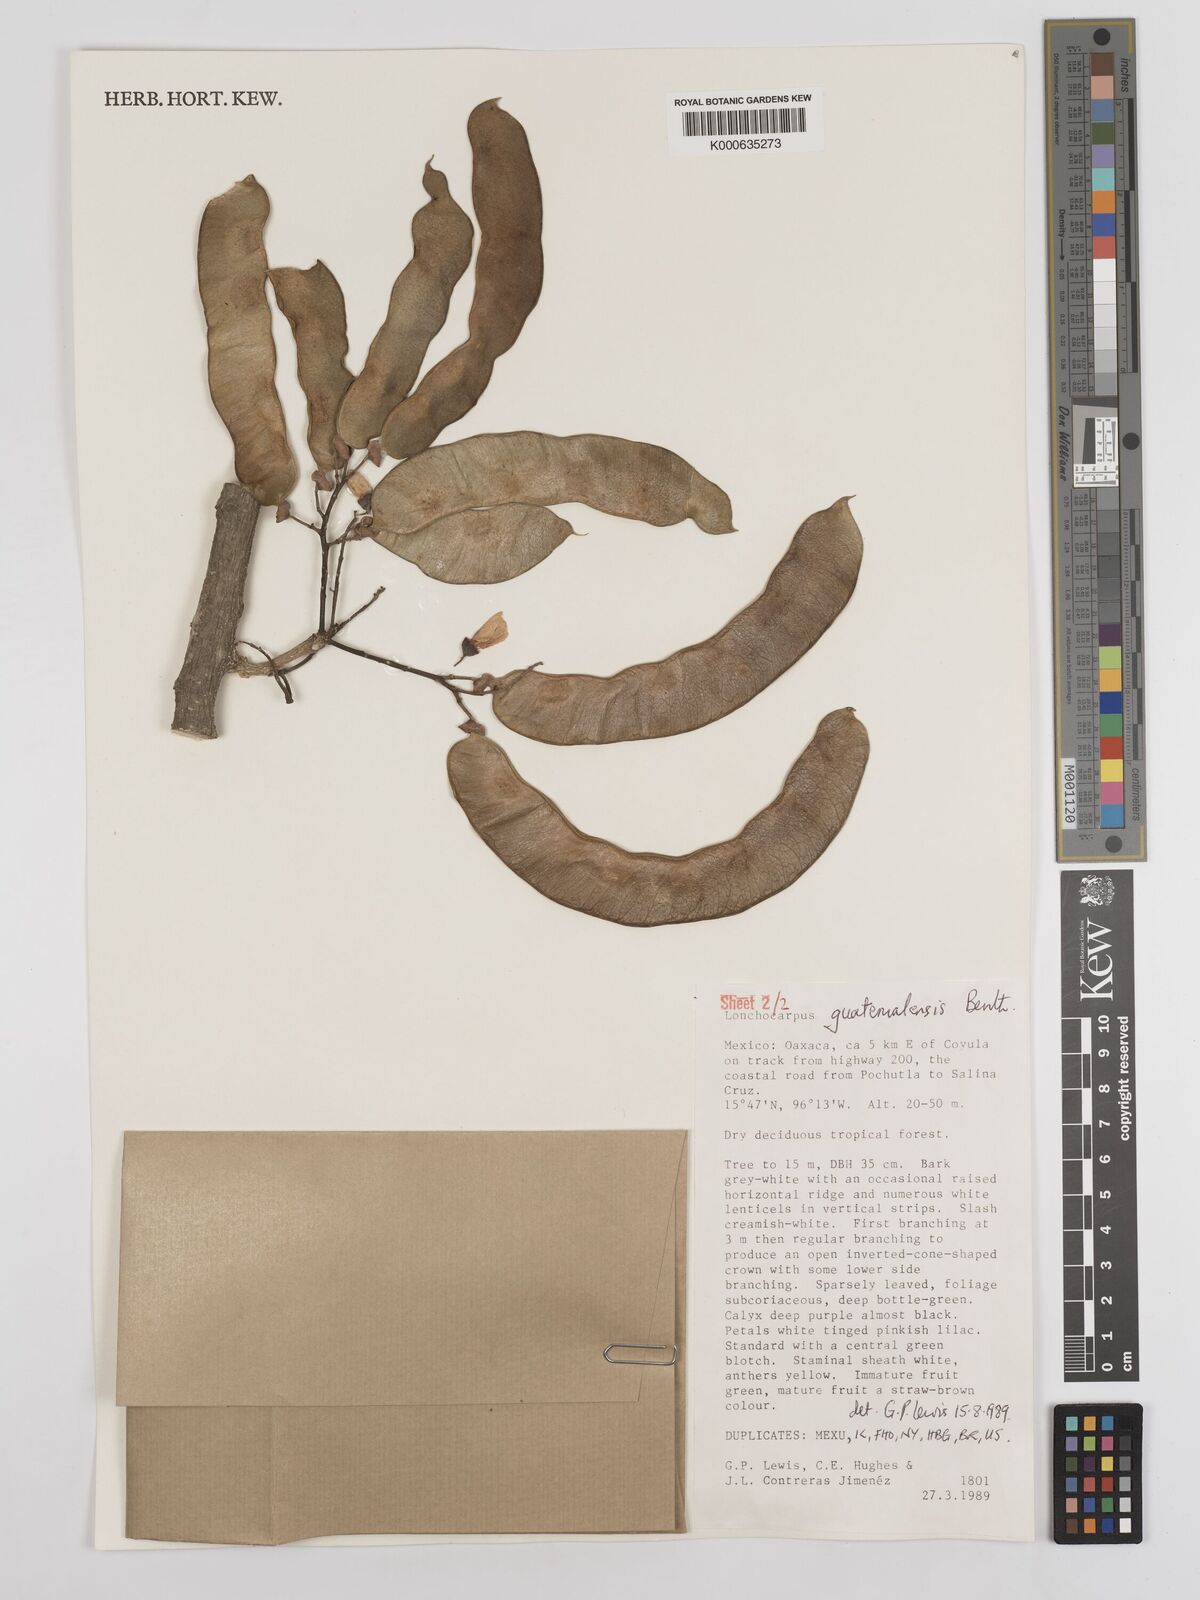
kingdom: Plantae
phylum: Tracheophyta
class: Magnoliopsida
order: Fabales
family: Fabaceae
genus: Lonchocarpus
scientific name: Lonchocarpus guatemalensis
